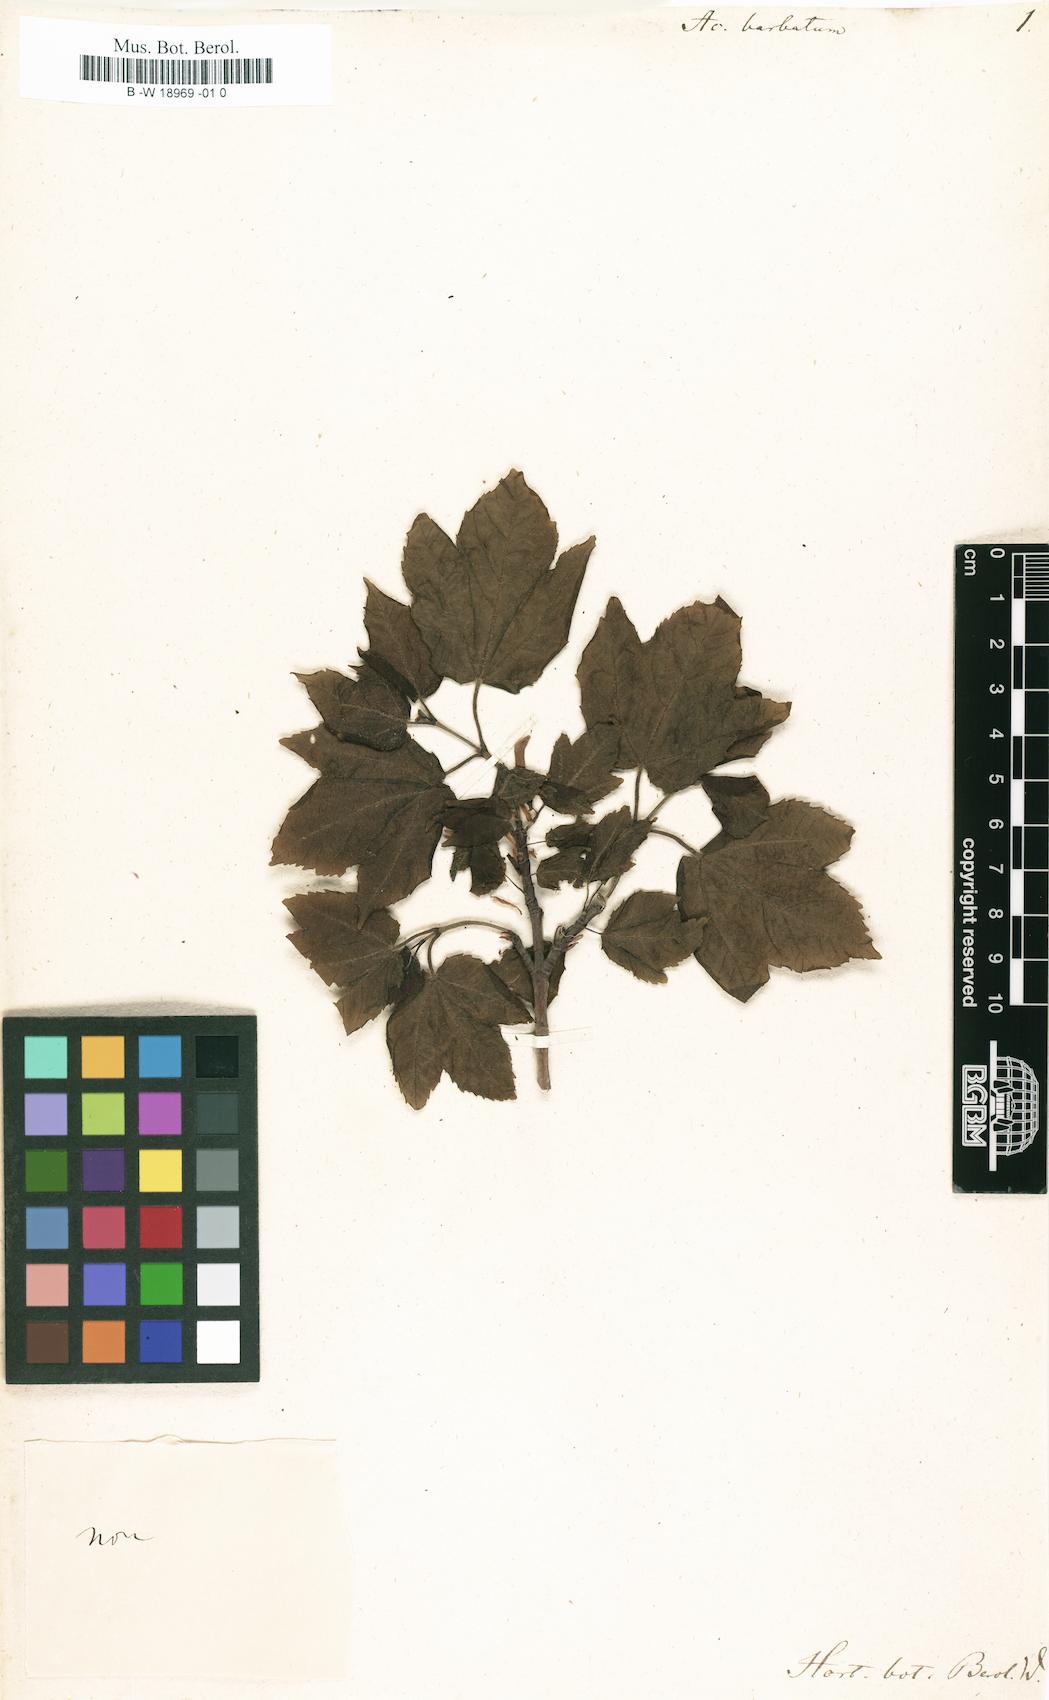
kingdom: Plantae
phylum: Tracheophyta
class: Magnoliopsida
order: Sapindales
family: Sapindaceae
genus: Acer
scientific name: Acer barbatum
